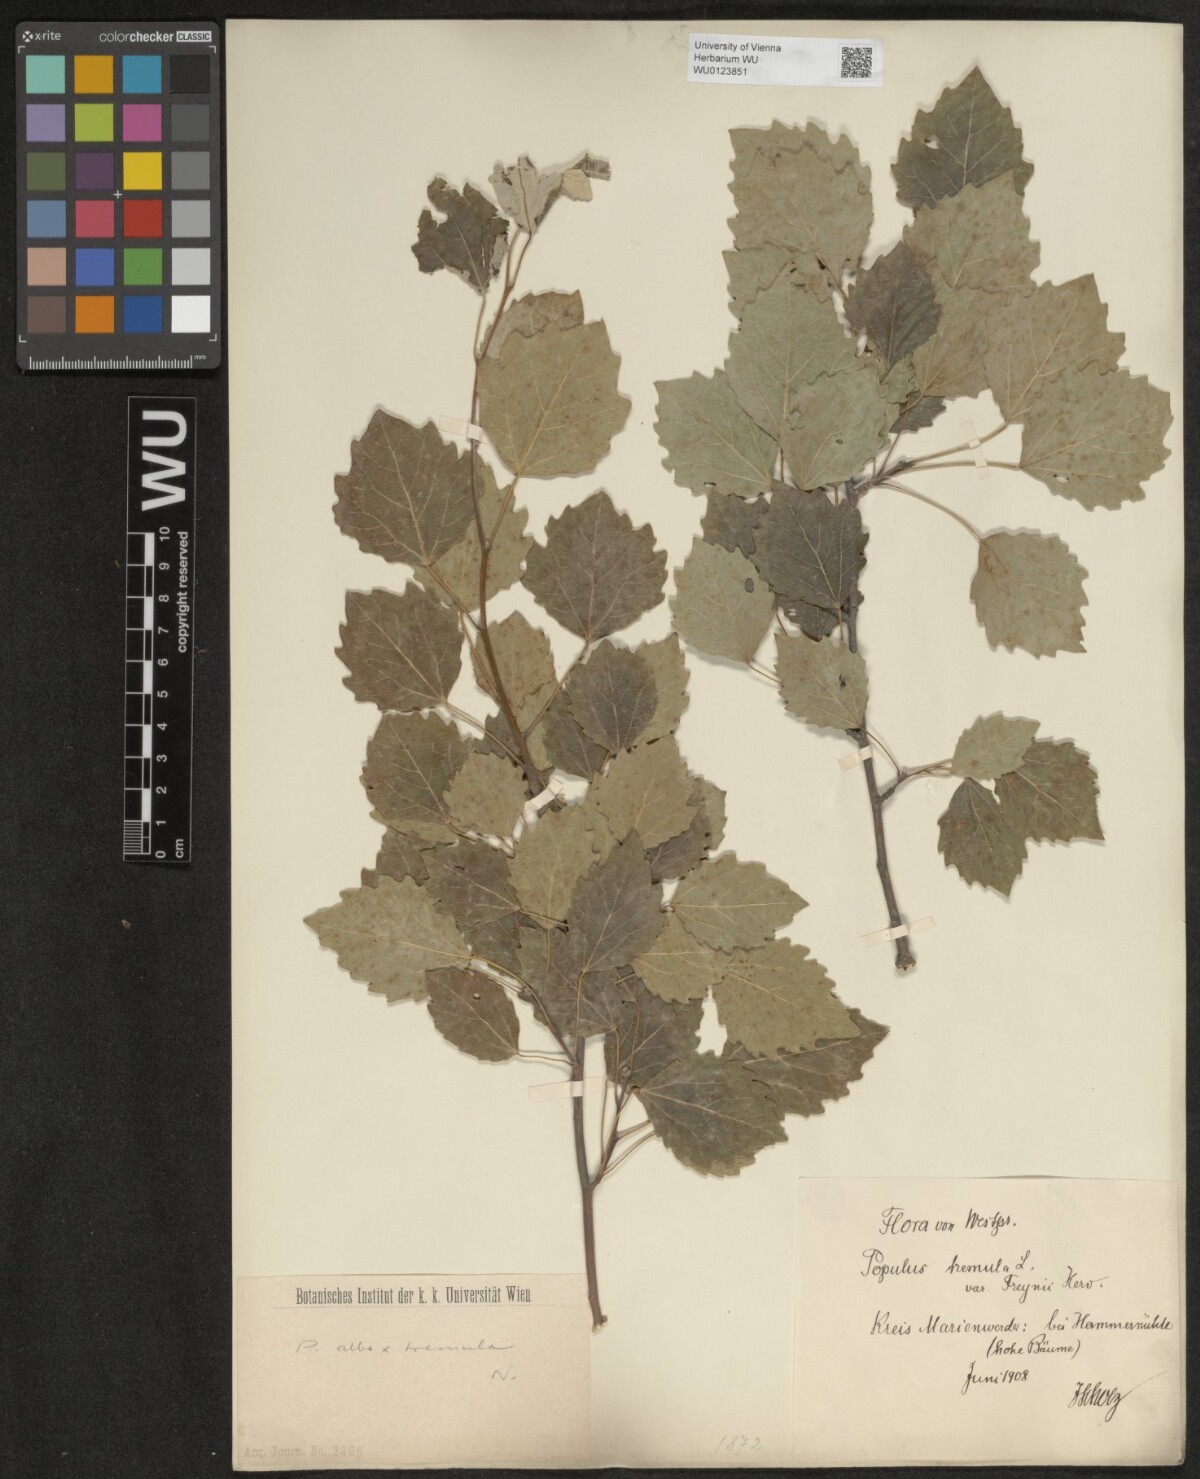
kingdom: Plantae
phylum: Tracheophyta
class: Magnoliopsida
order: Malpighiales
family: Salicaceae
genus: Populus
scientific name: Populus canescens
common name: Gray poplar
